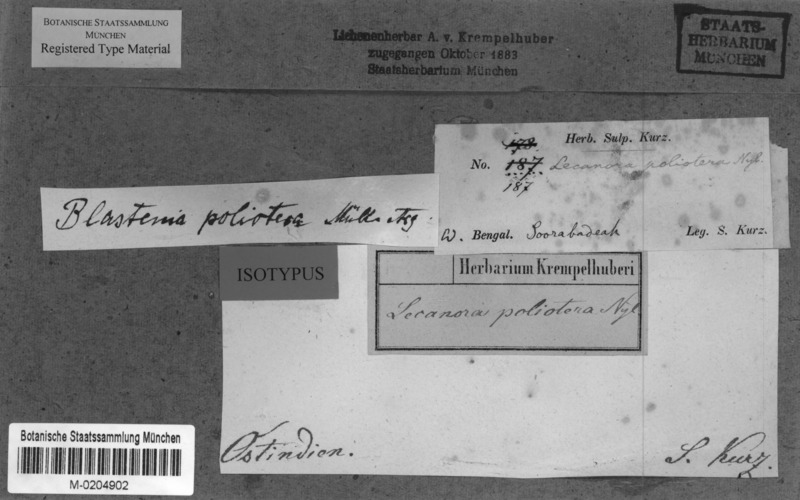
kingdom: Fungi
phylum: Ascomycota
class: Lecanoromycetes
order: Teloschistales
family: Teloschistaceae
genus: Caloplaca
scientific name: Caloplaca
